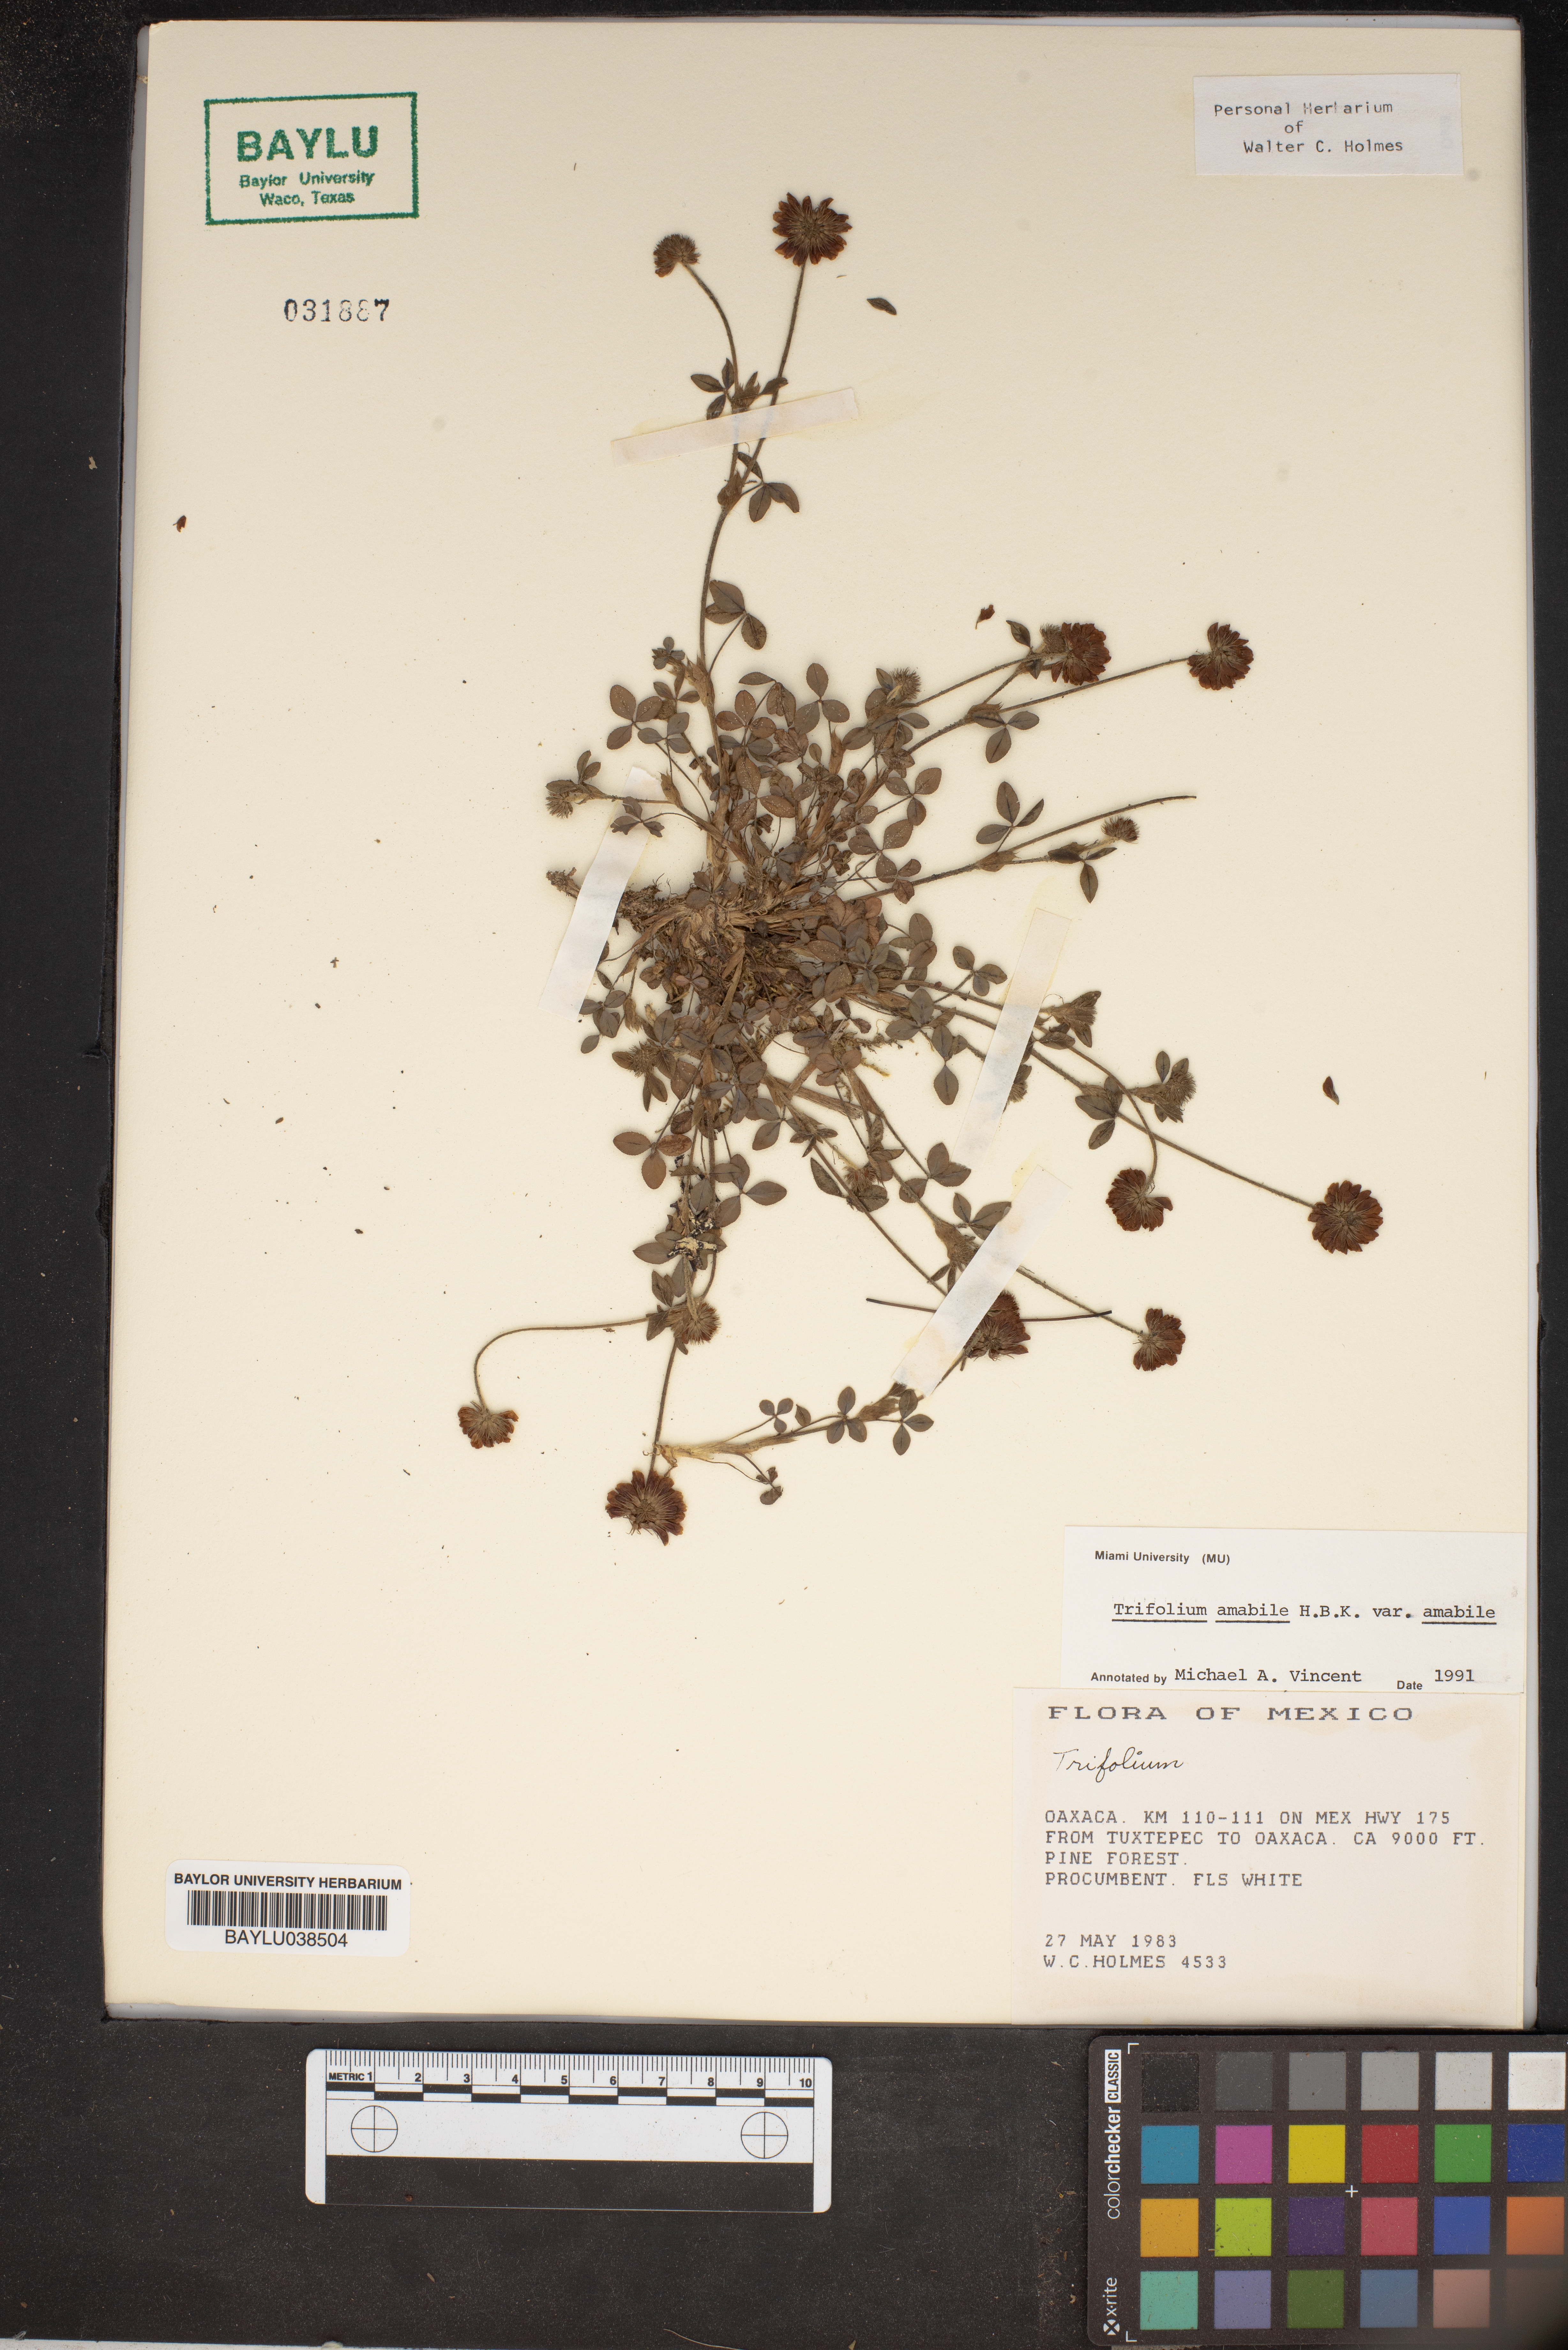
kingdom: Plantae
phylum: Tracheophyta
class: Magnoliopsida
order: Fabales
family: Fabaceae
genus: Trifolium
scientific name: Trifolium amabile
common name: Aztec clover
